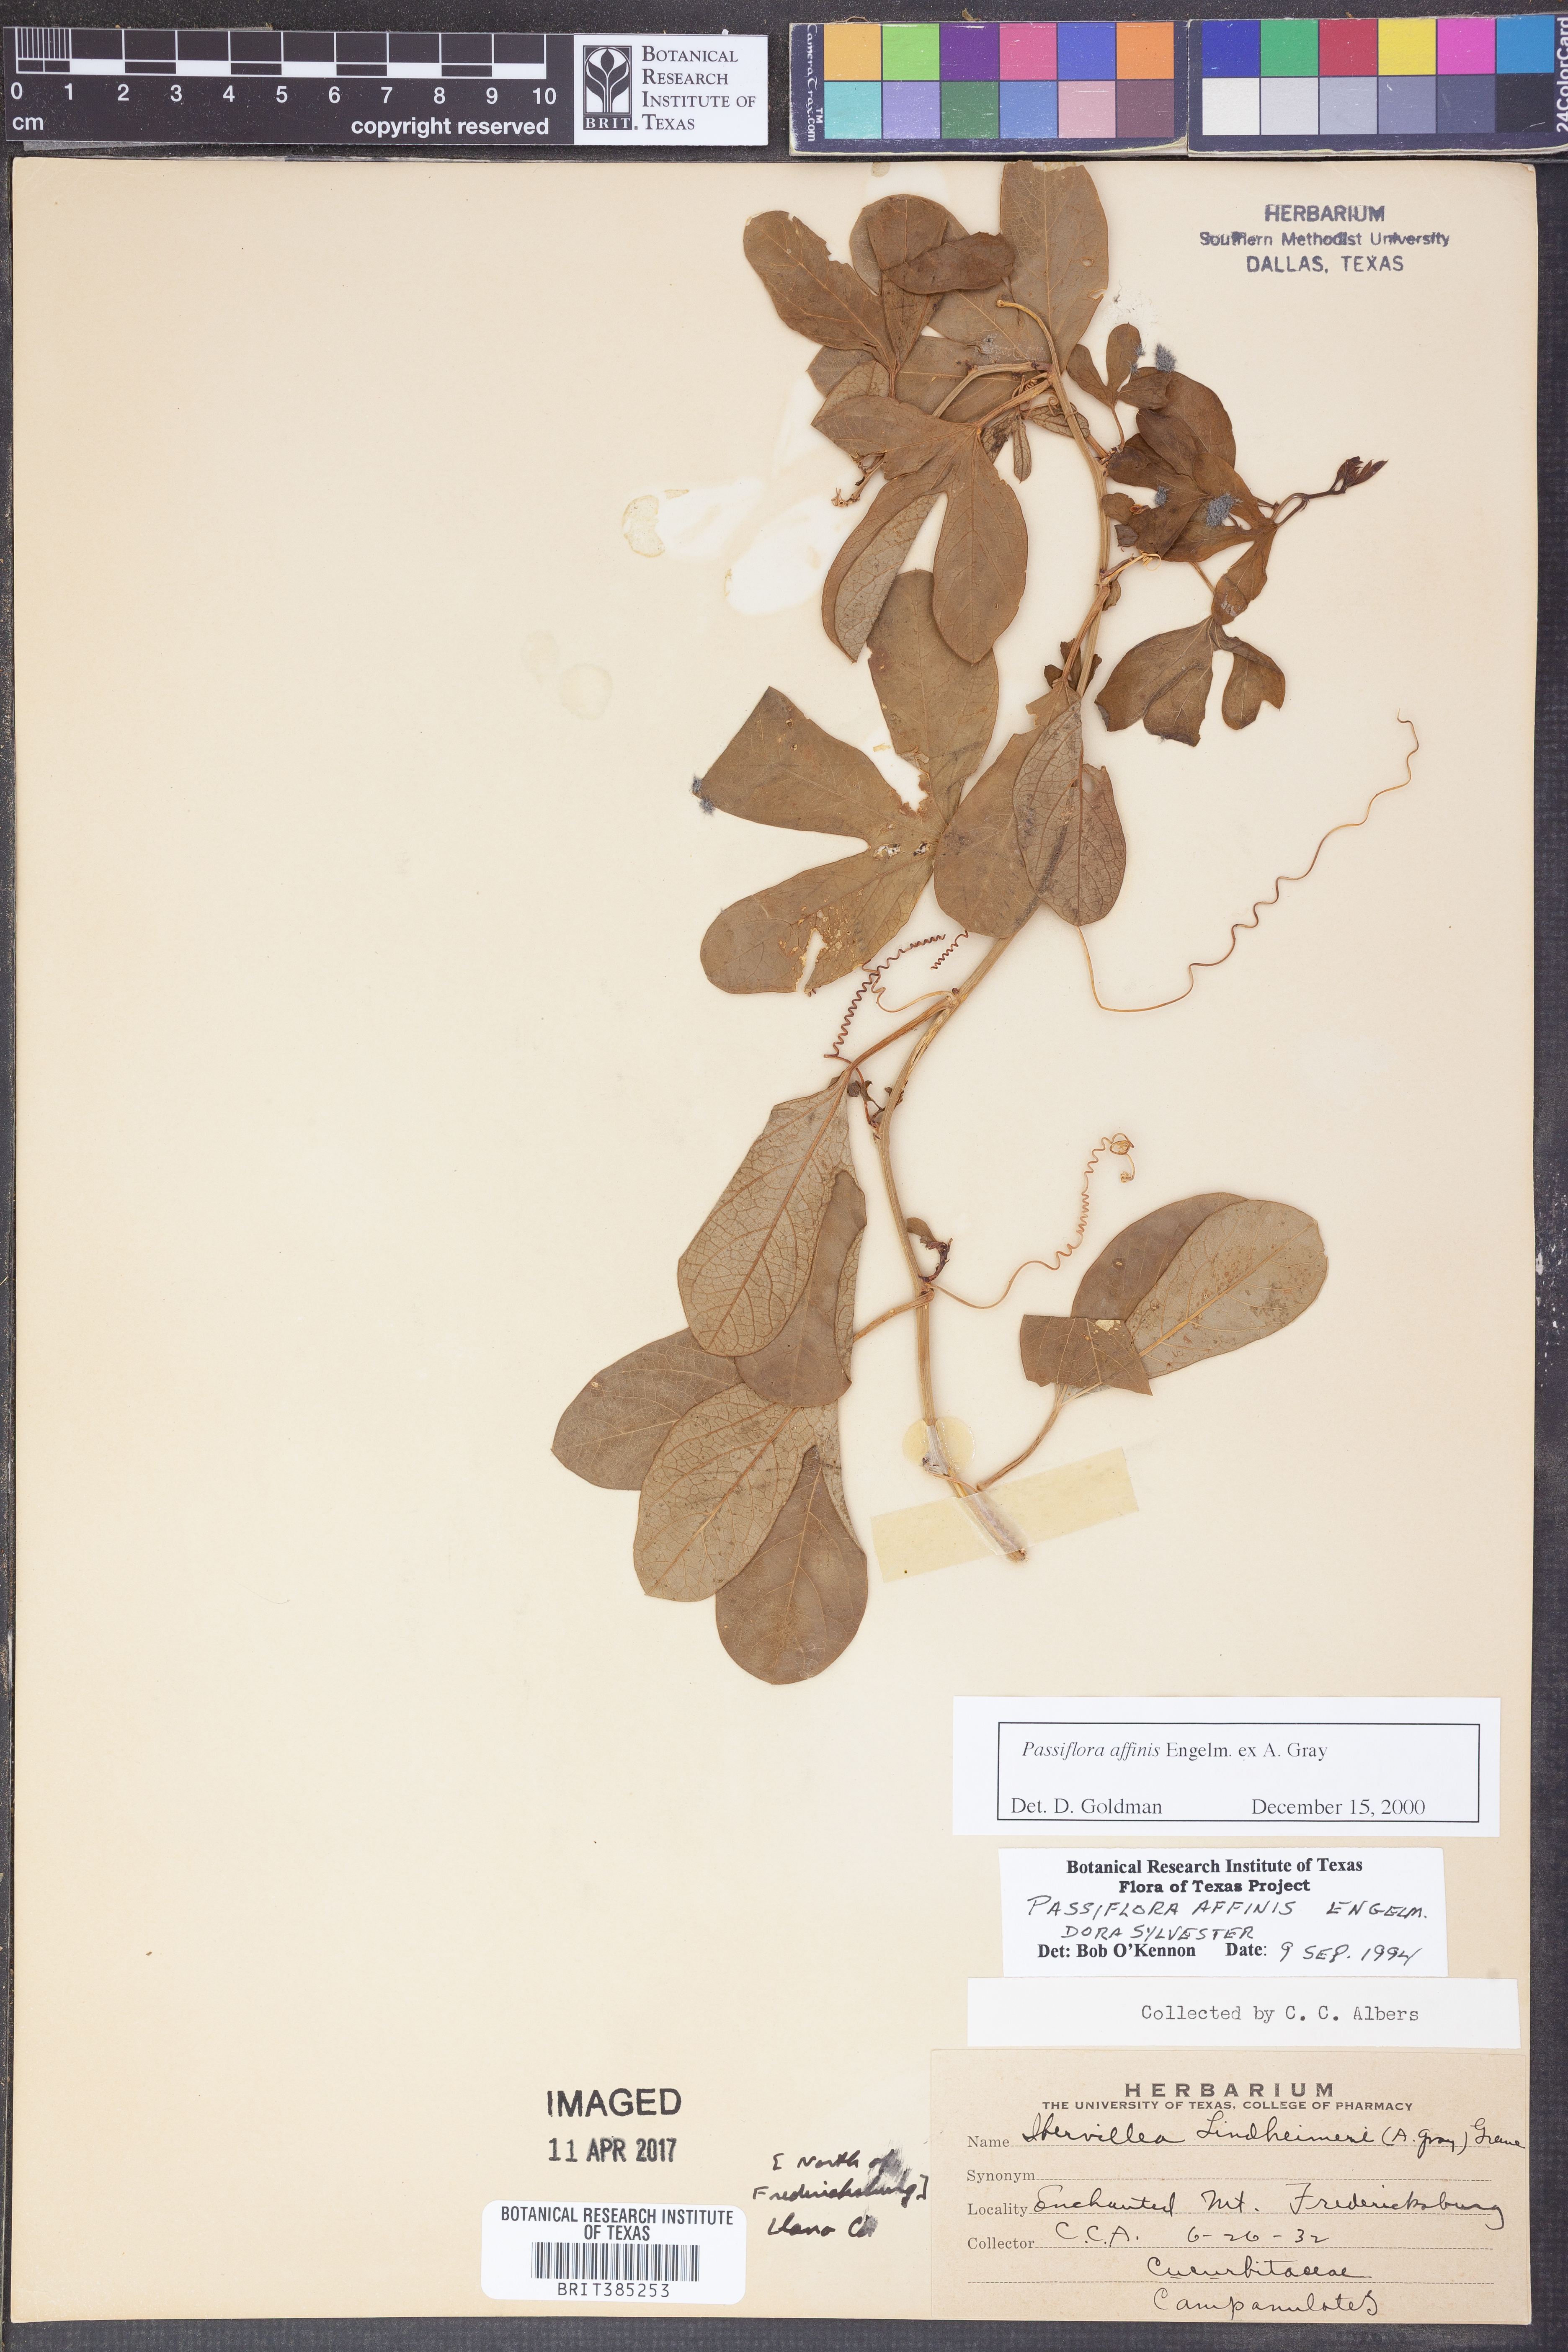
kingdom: Plantae
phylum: Tracheophyta
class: Magnoliopsida
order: Malpighiales
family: Passifloraceae
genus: Passiflora
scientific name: Passiflora affinis
